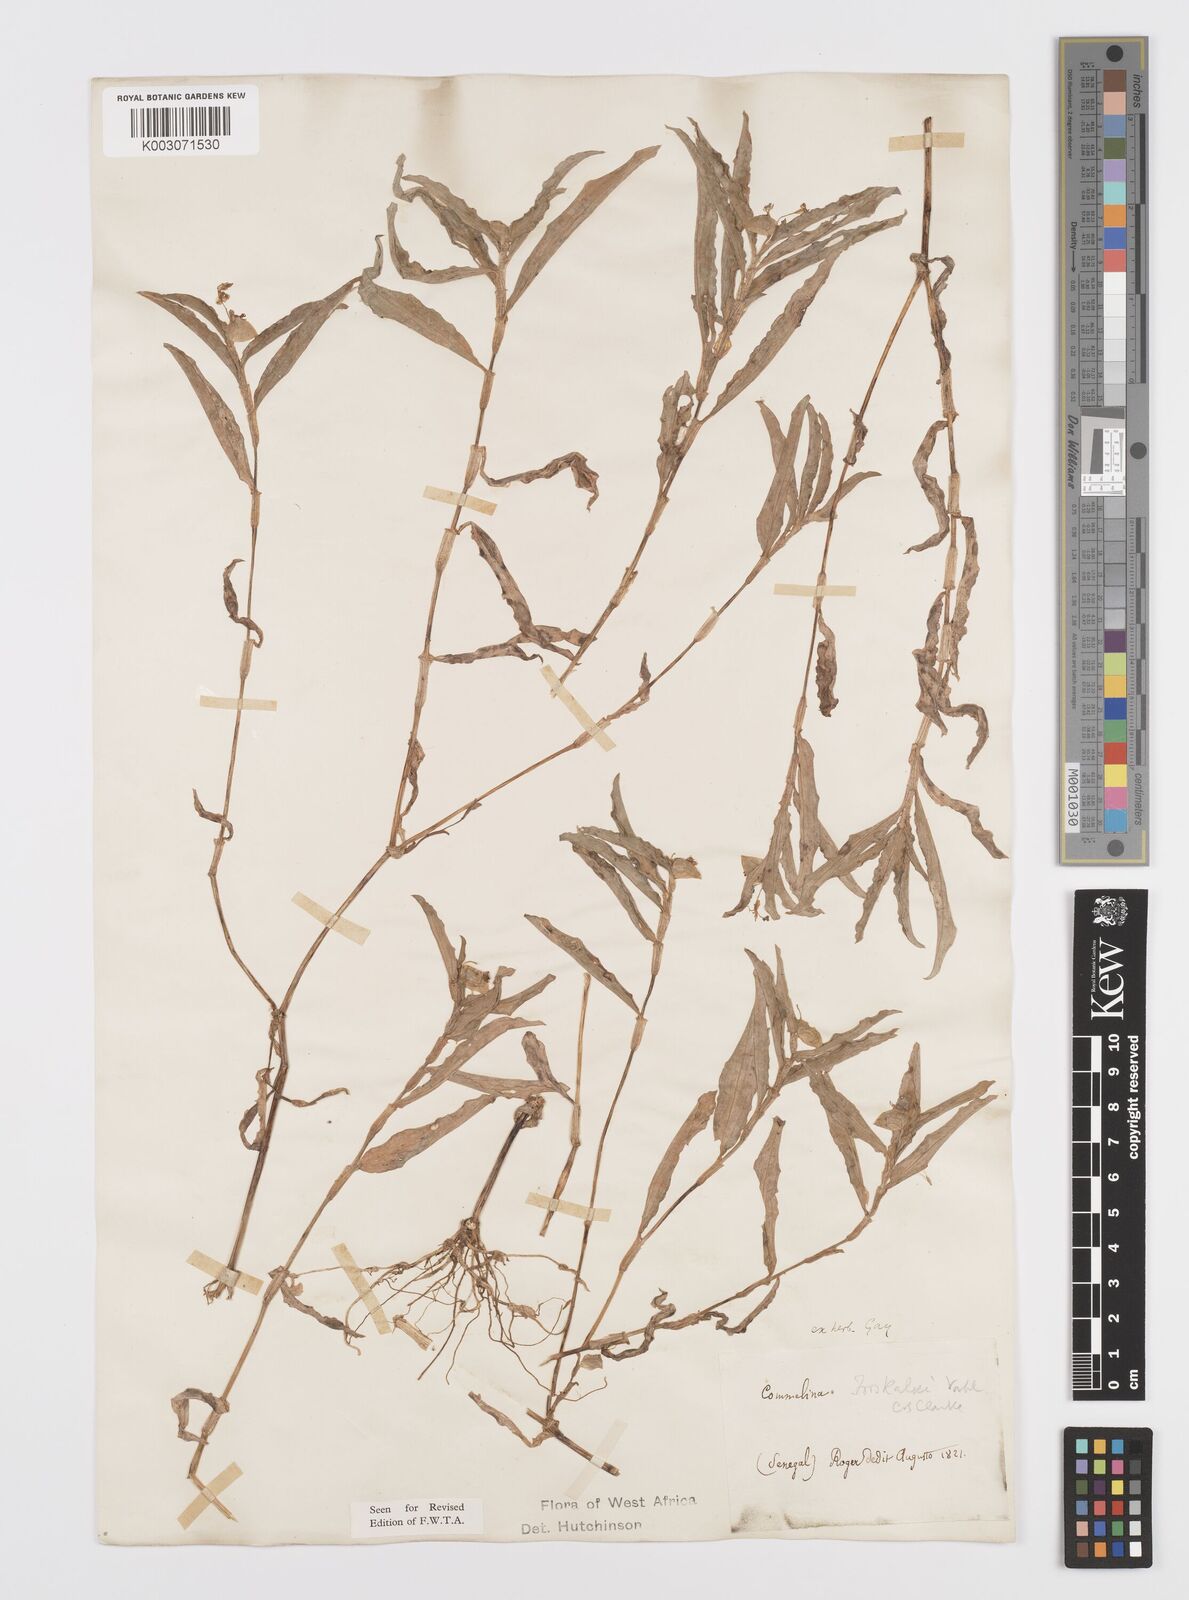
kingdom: Plantae
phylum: Tracheophyta
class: Liliopsida
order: Commelinales
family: Commelinaceae
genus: Commelina
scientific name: Commelina forskaolii
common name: Rat's ear
